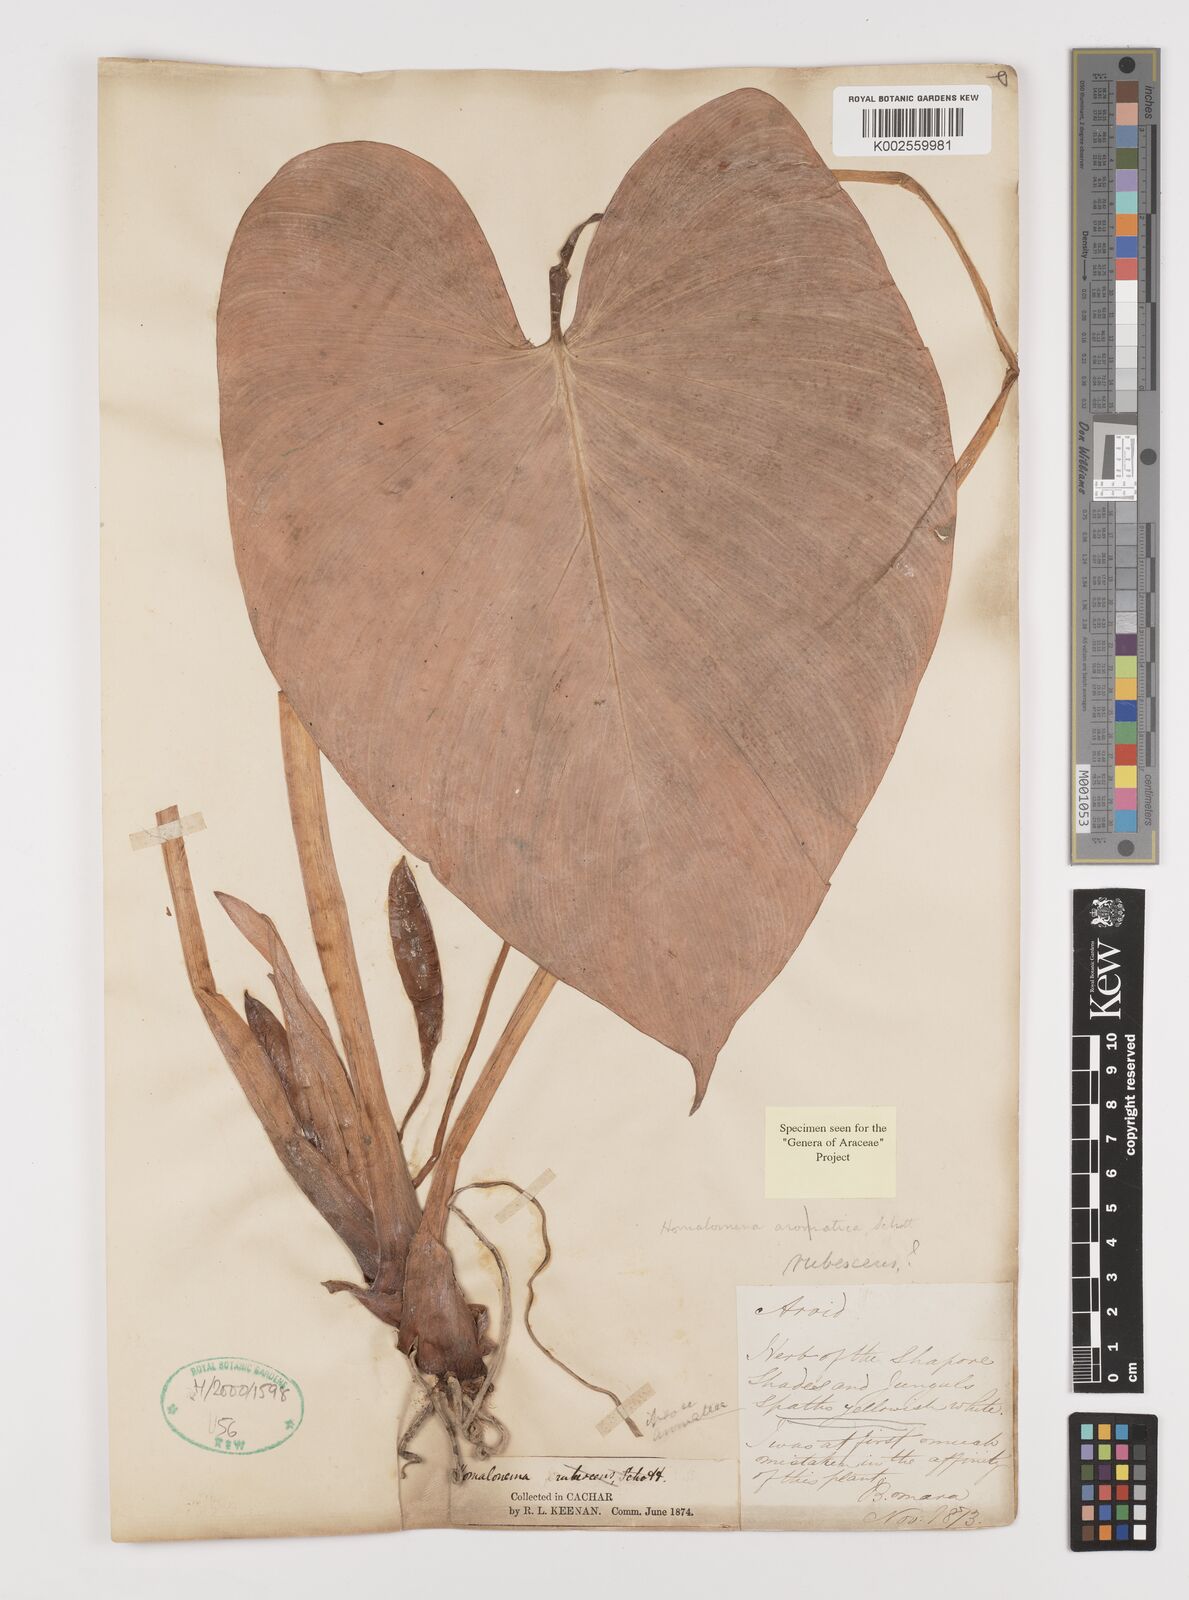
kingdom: Plantae
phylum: Tracheophyta
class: Liliopsida
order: Alismatales
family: Araceae
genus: Homalomena
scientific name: Homalomena rubescens
